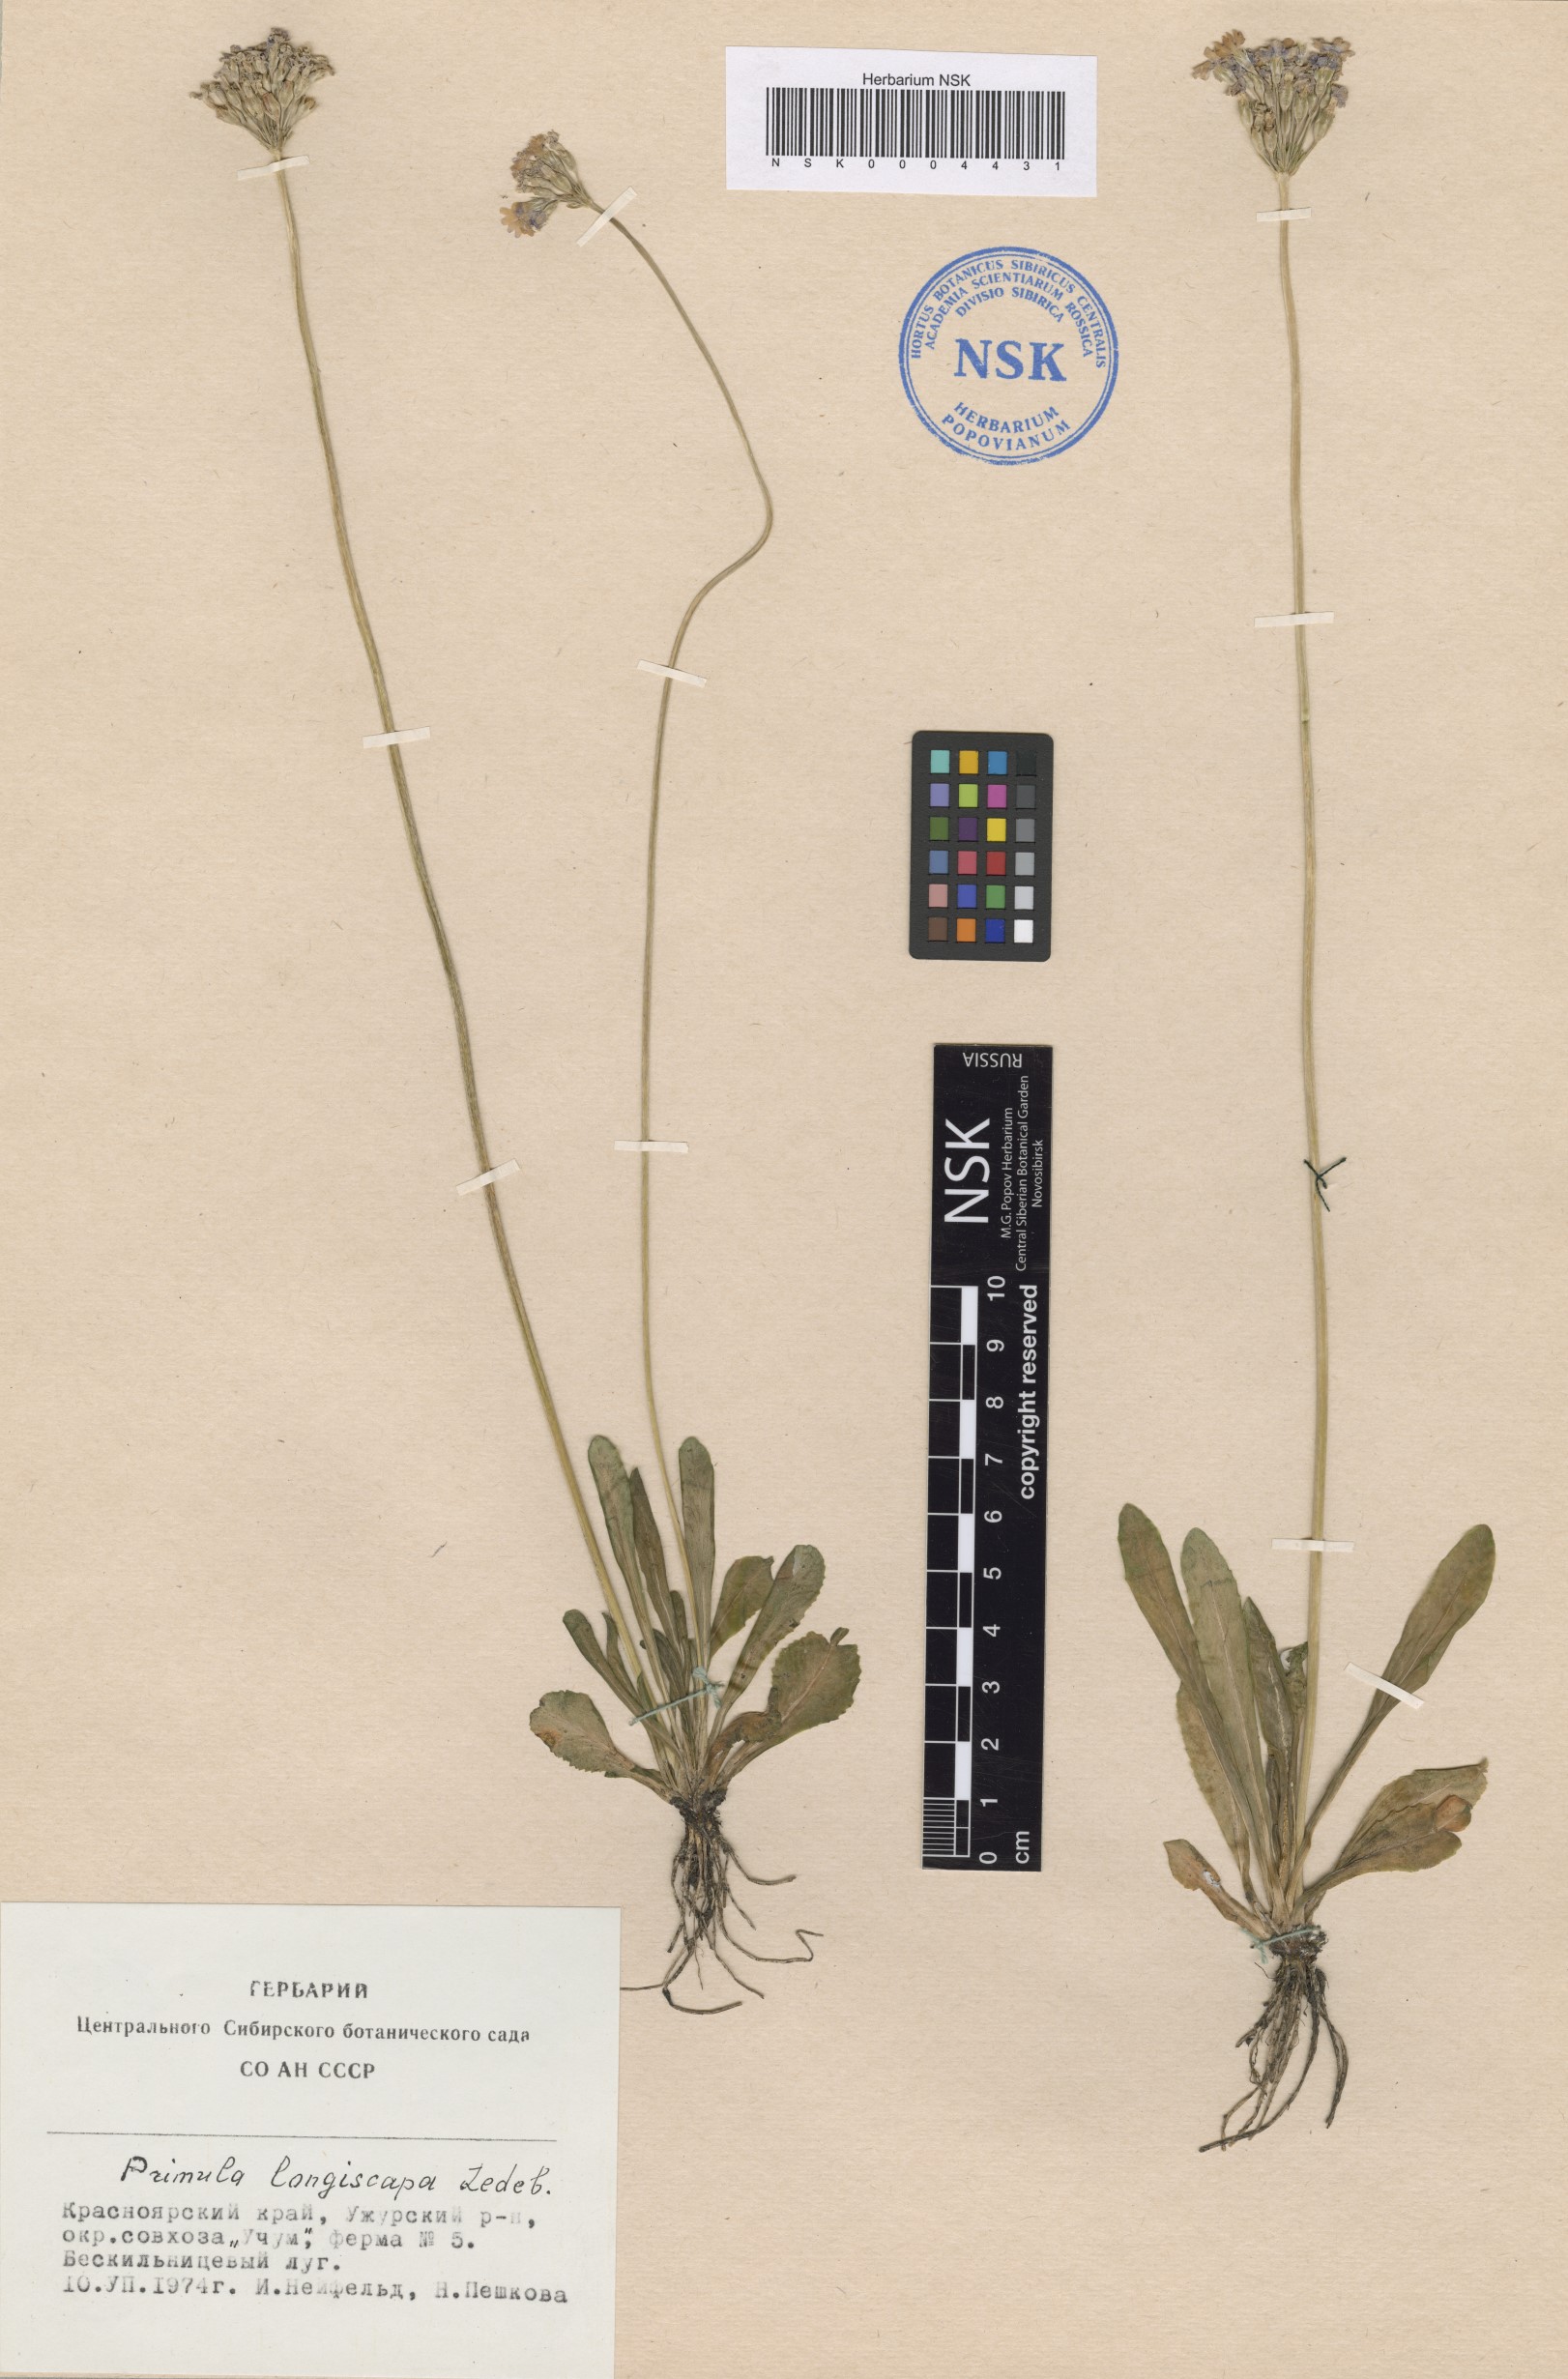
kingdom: Plantae
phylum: Tracheophyta
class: Magnoliopsida
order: Ericales
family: Primulaceae
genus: Primula
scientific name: Primula longiscapa
